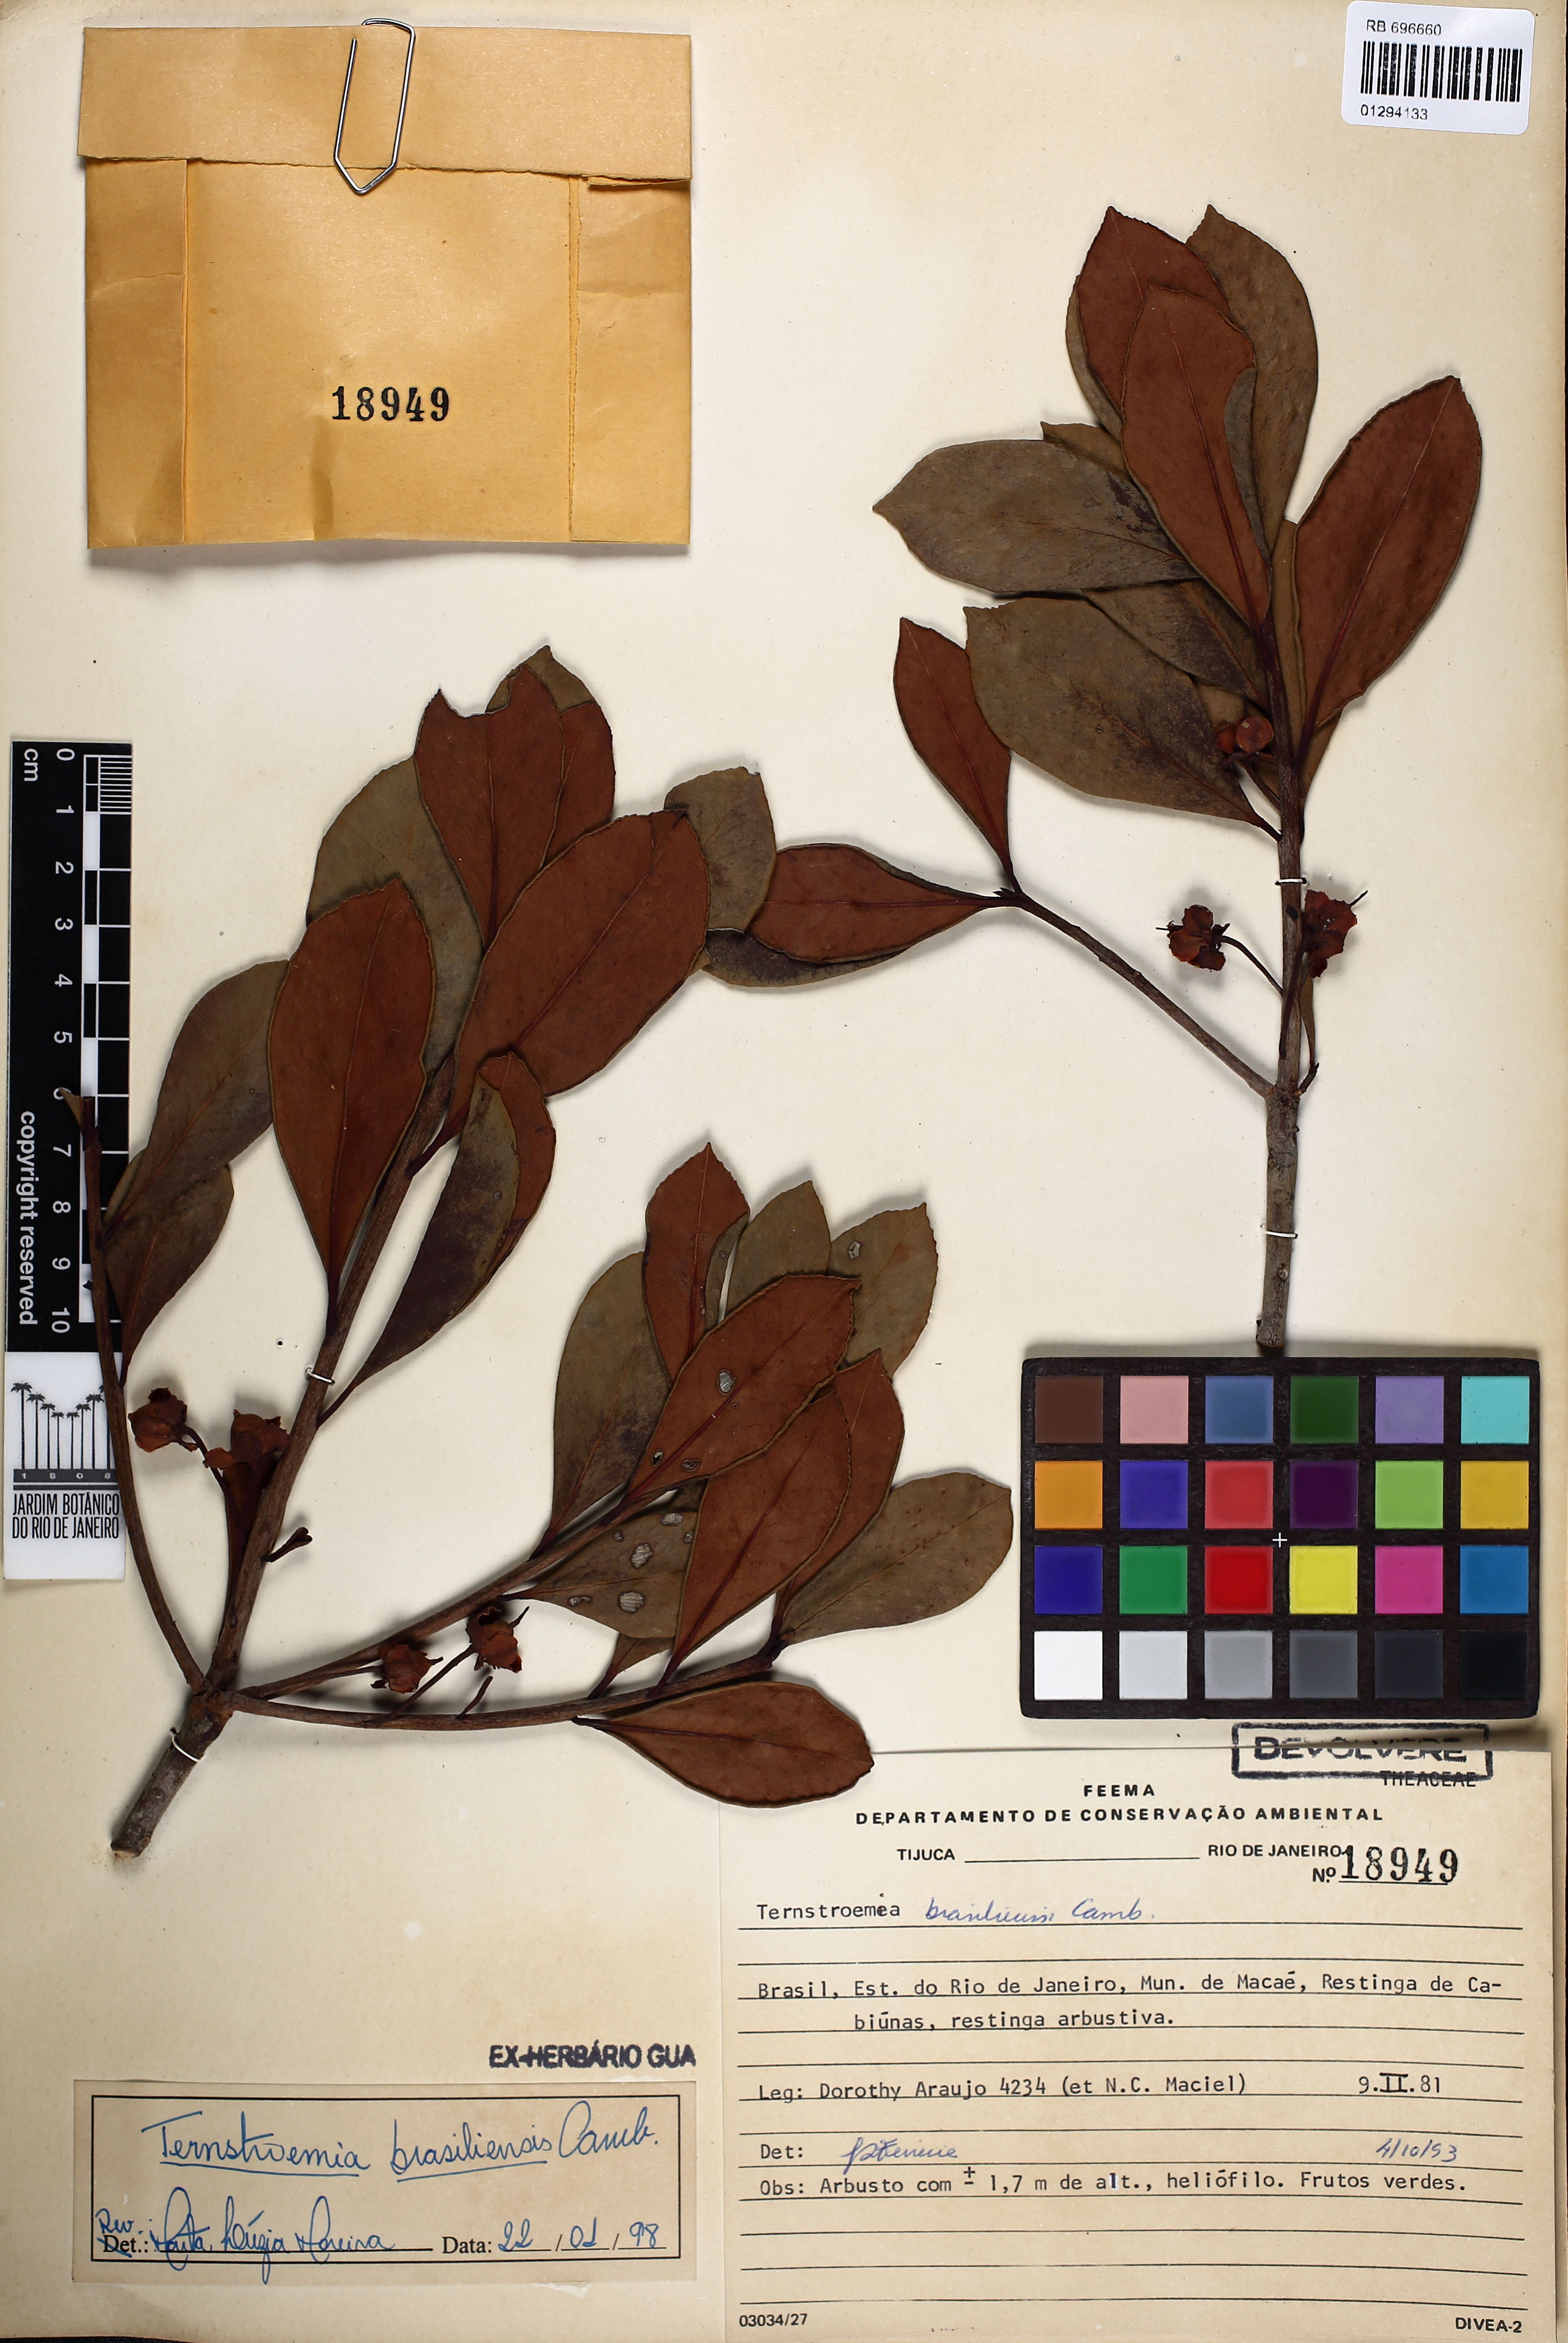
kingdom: Plantae
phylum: Tracheophyta
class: Magnoliopsida
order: Ericales
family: Pentaphylacaceae
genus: Ternstroemia
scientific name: Ternstroemia brasiliensis
